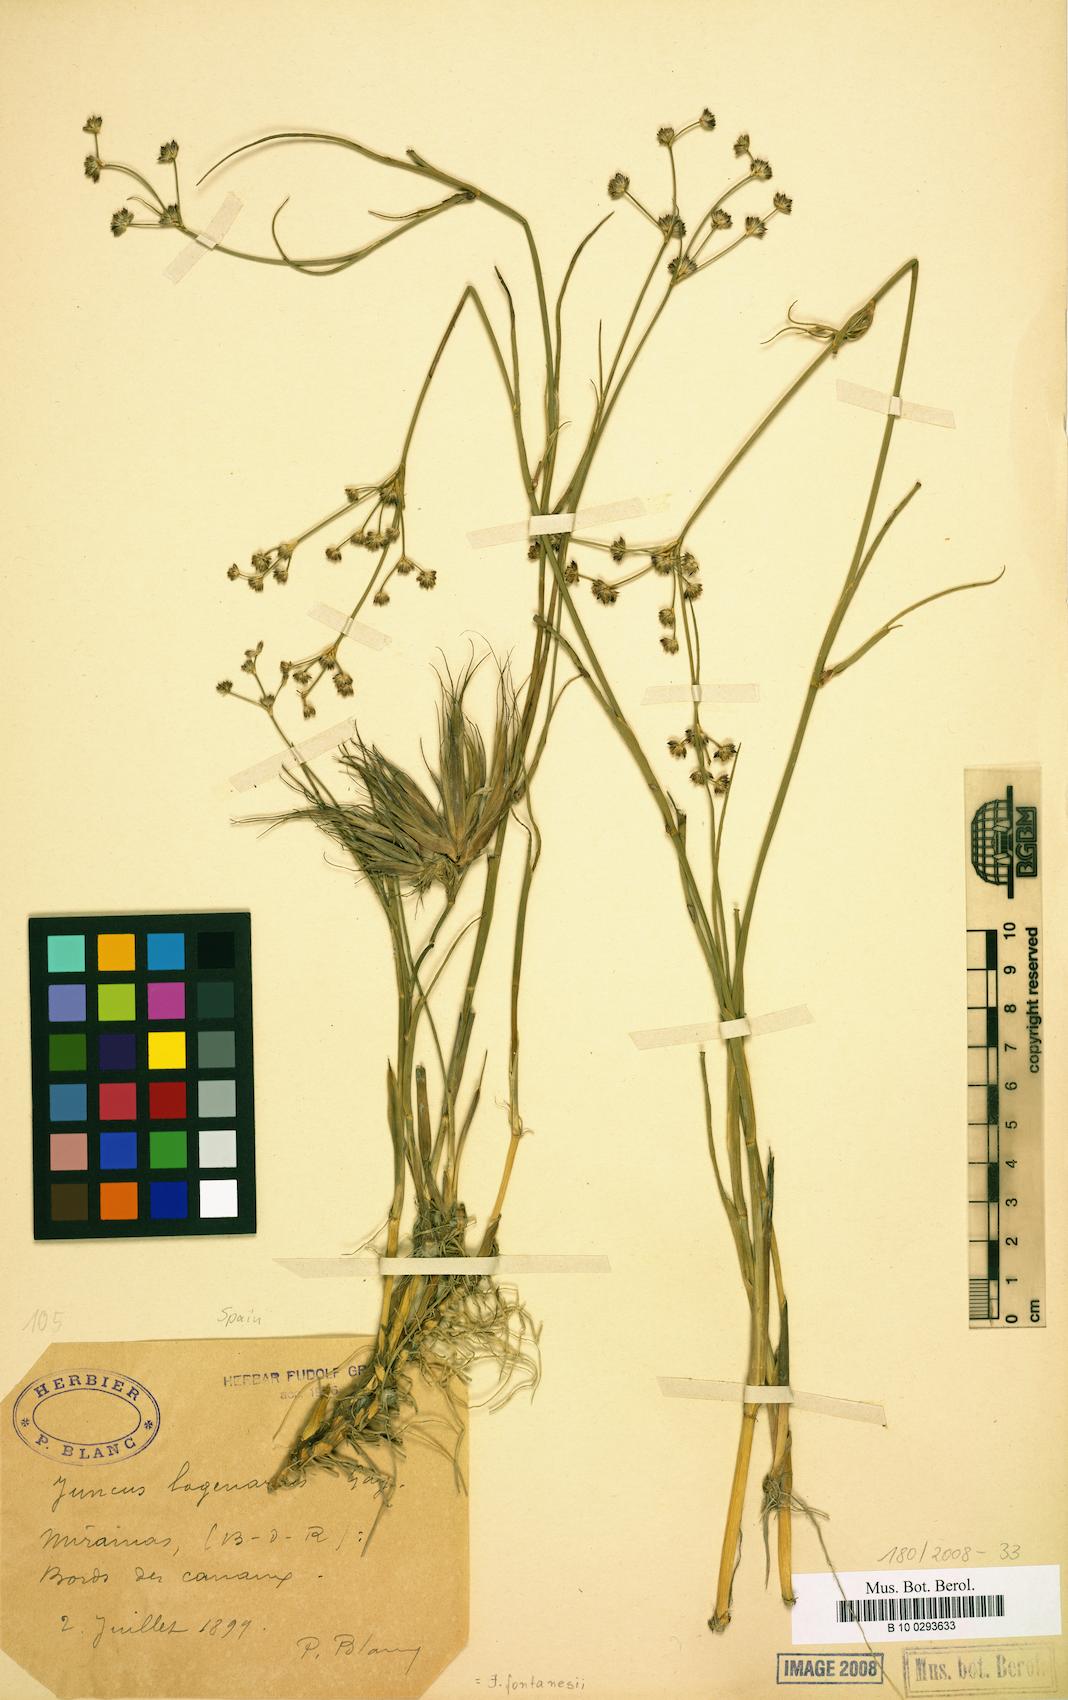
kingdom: Plantae
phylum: Tracheophyta
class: Liliopsida
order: Poales
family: Juncaceae
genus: Juncus
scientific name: Juncus fontanesii
